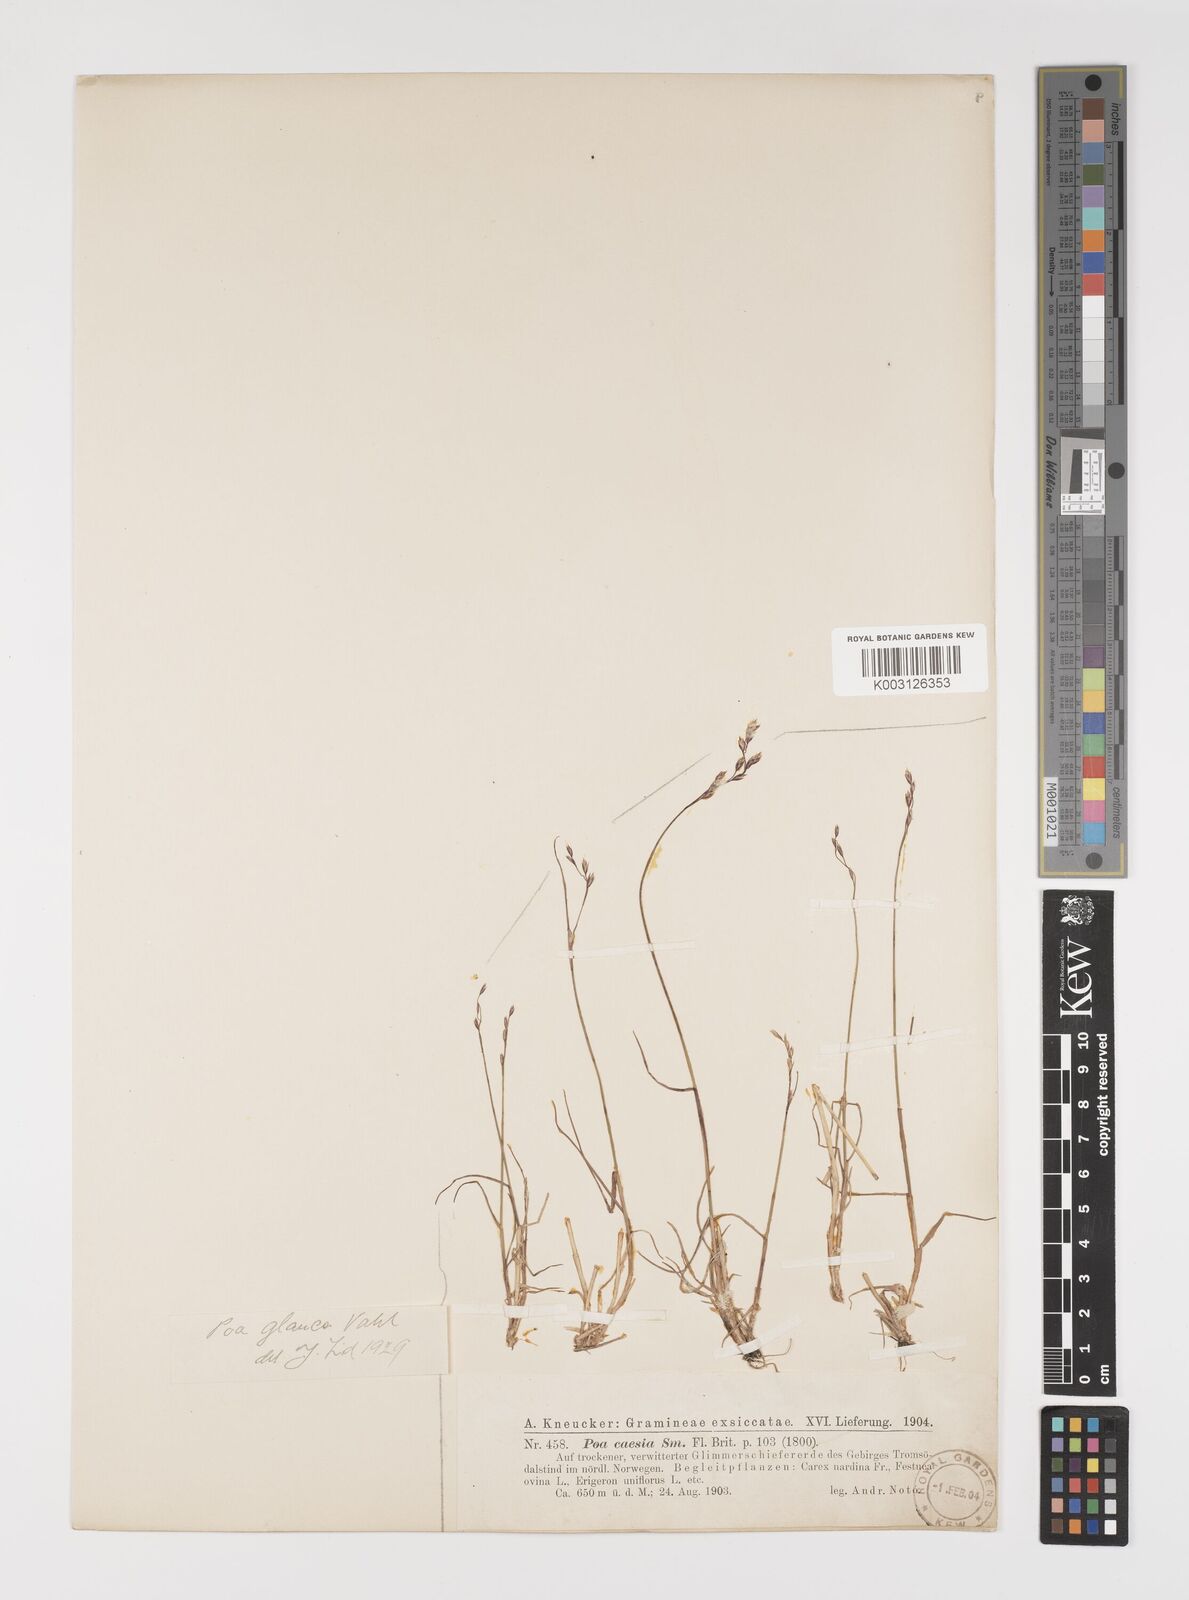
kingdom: Plantae
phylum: Tracheophyta
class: Liliopsida
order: Poales
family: Poaceae
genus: Poa
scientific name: Poa glauca
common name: Glaucous bluegrass
